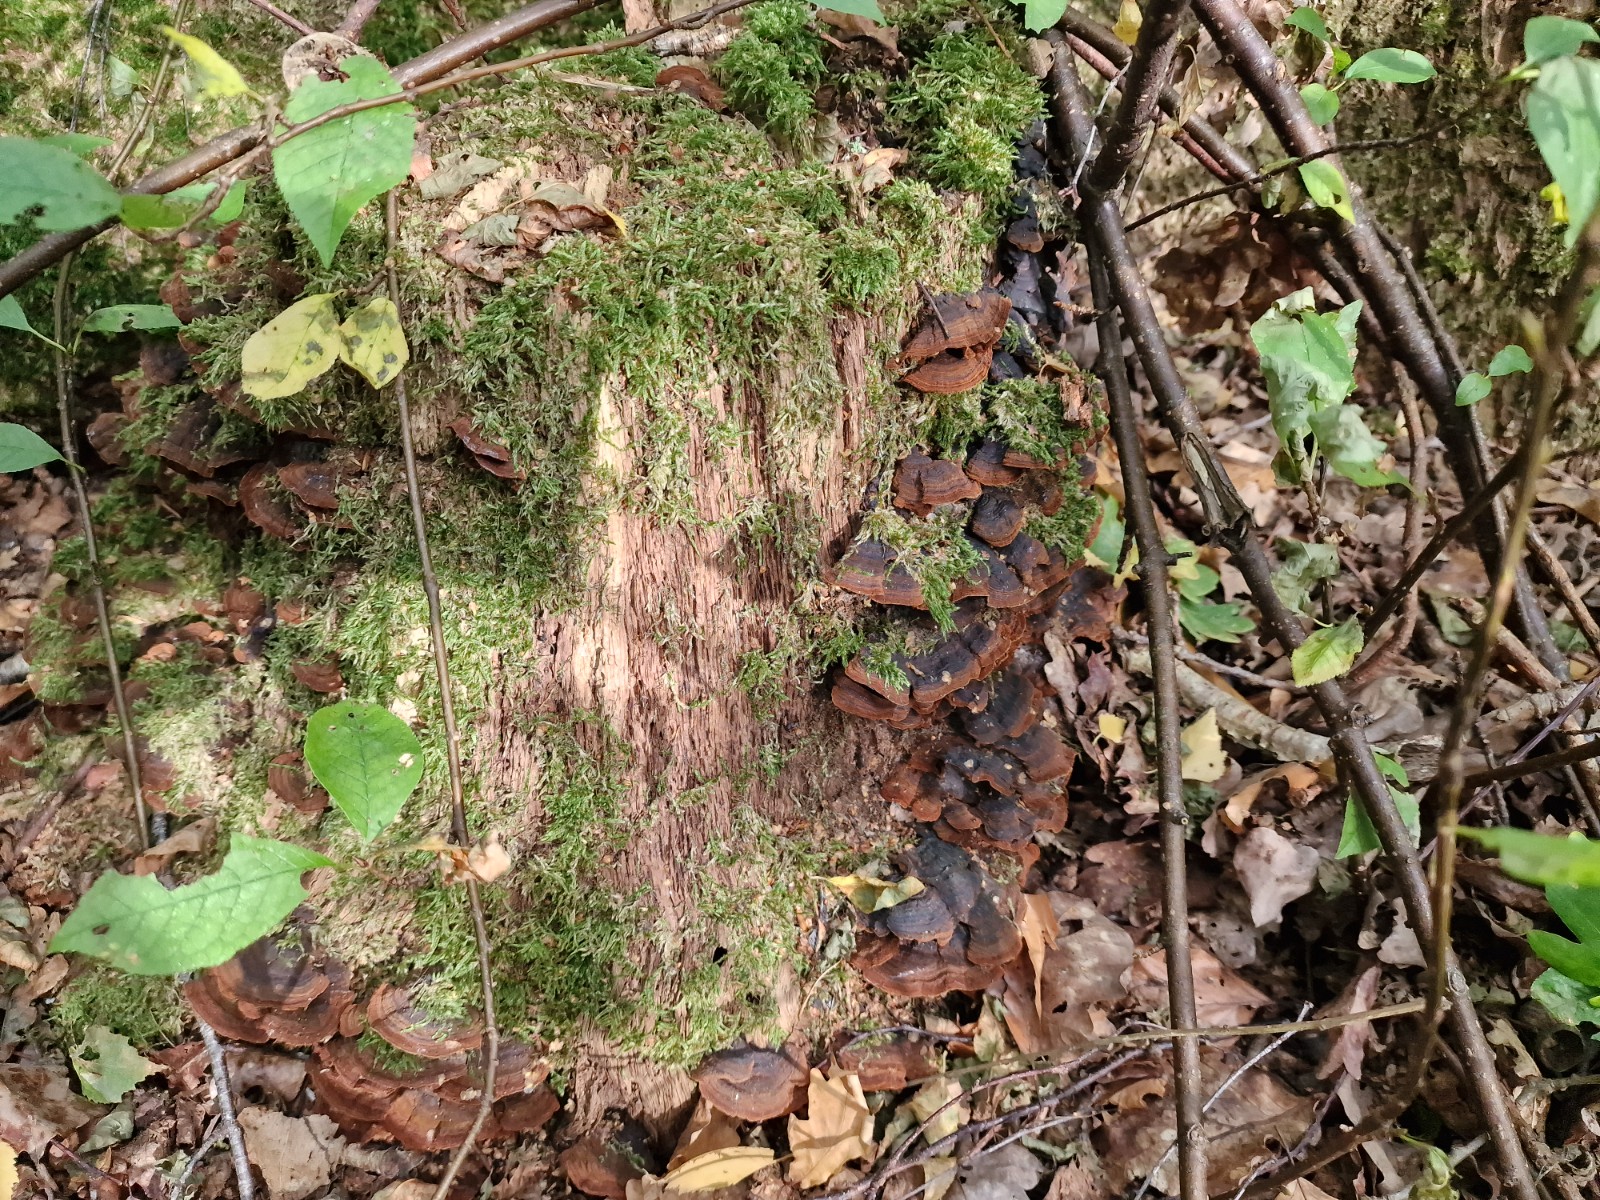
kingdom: Fungi
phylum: Basidiomycota
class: Agaricomycetes
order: Hymenochaetales
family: Hymenochaetaceae
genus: Hymenochaete
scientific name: Hymenochaete rubiginosa
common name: stiv ruslædersvamp
